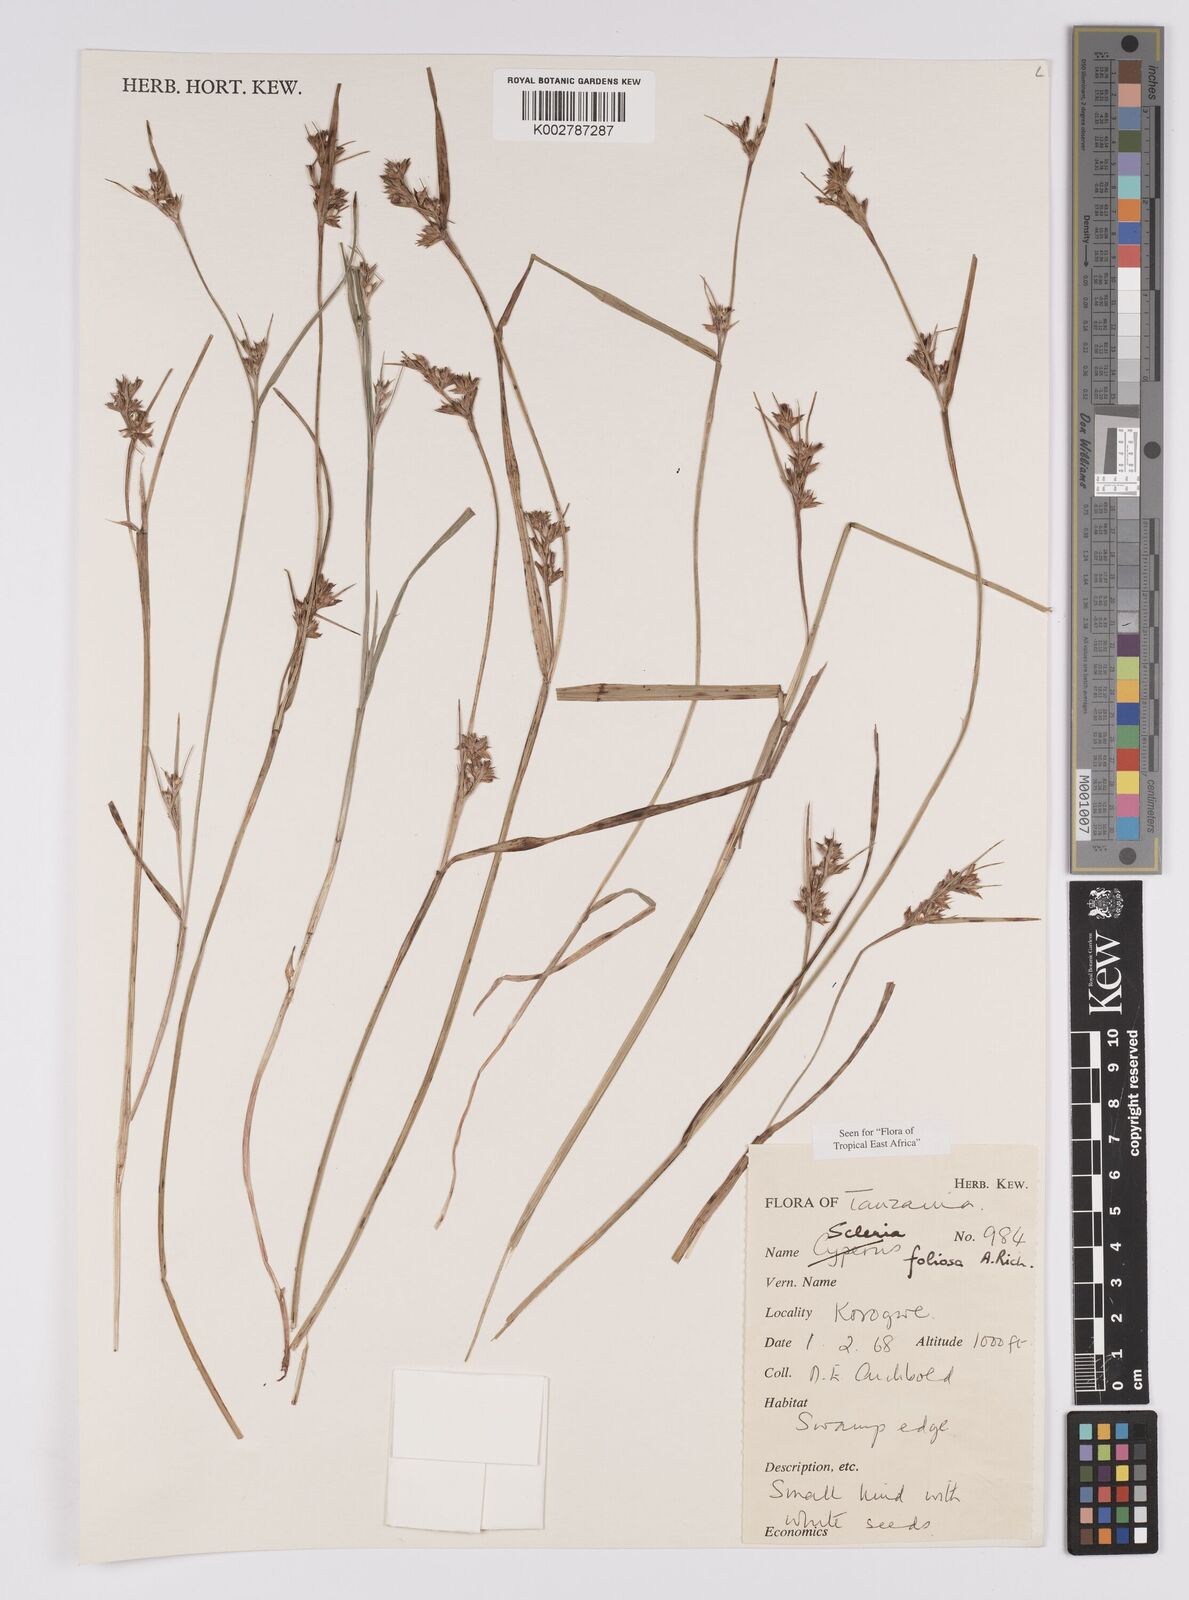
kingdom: Plantae
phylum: Tracheophyta
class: Liliopsida
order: Poales
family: Cyperaceae
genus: Scleria
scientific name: Scleria foliosa
